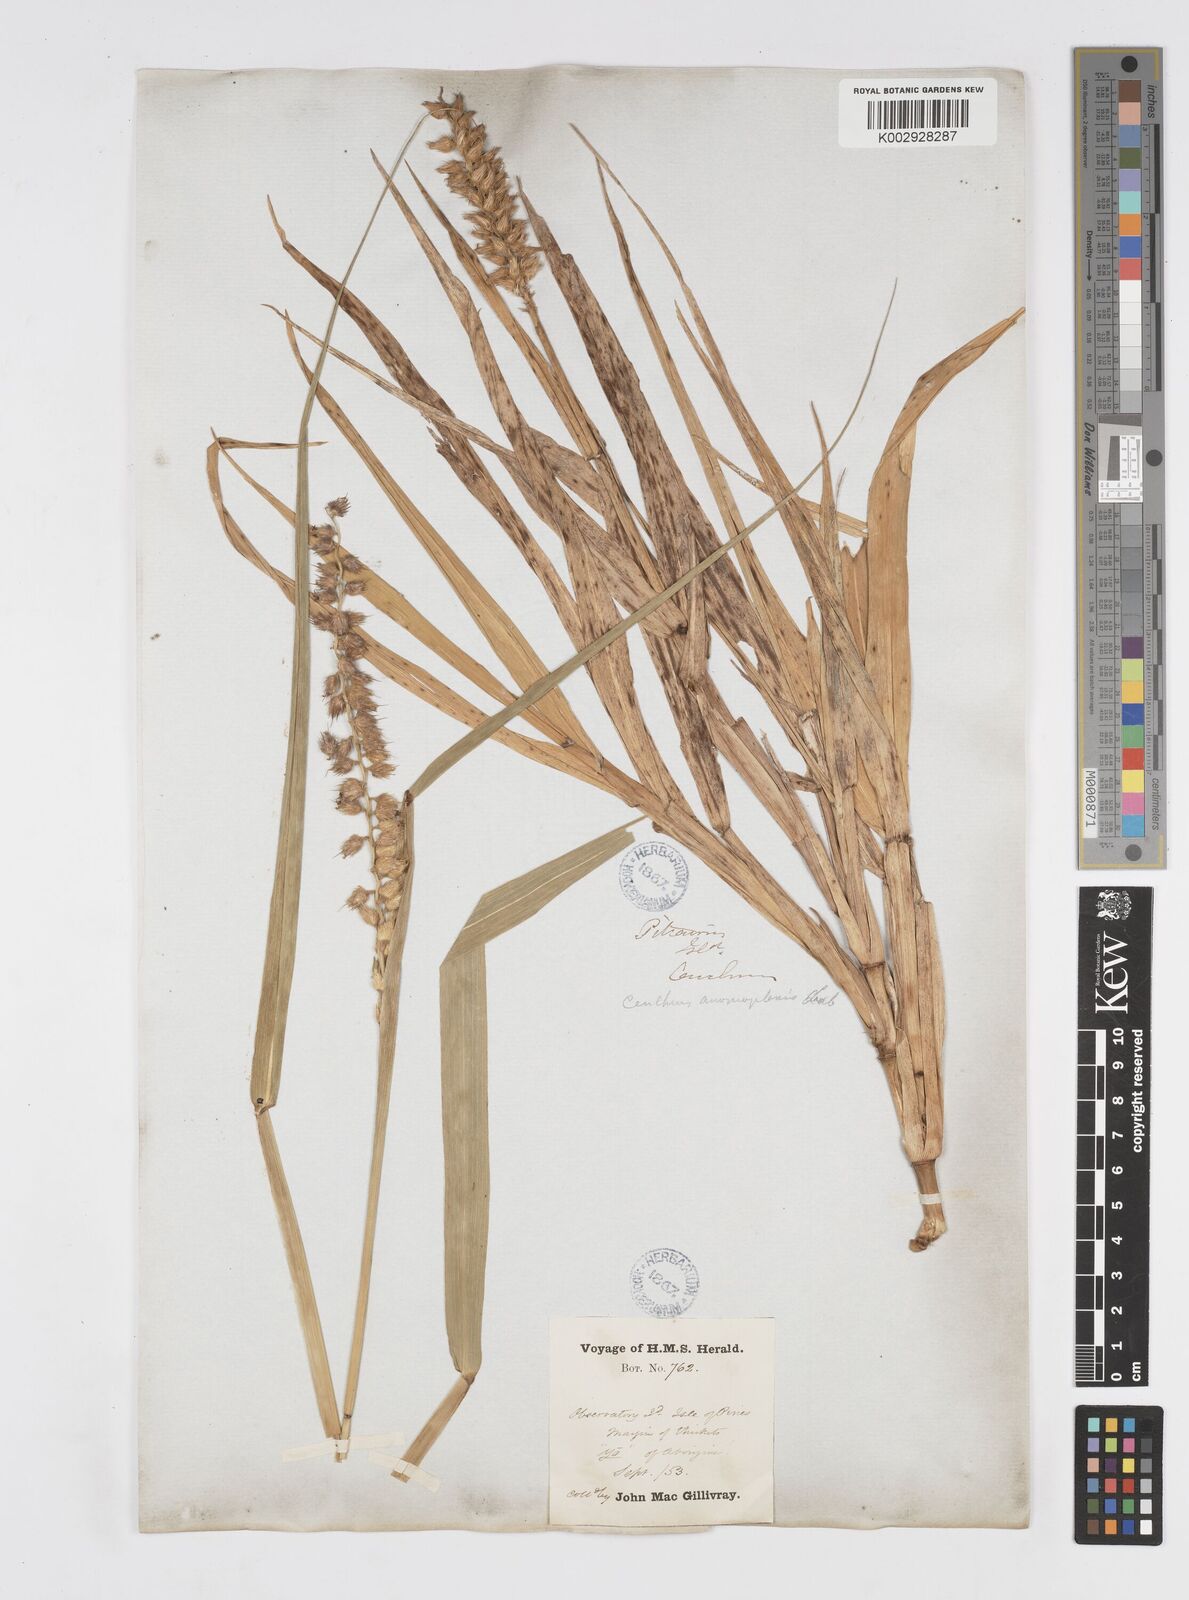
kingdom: Plantae
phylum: Tracheophyta
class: Liliopsida
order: Poales
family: Poaceae
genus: Cenchrus
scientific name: Cenchrus caliculatus
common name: Large bur grass
